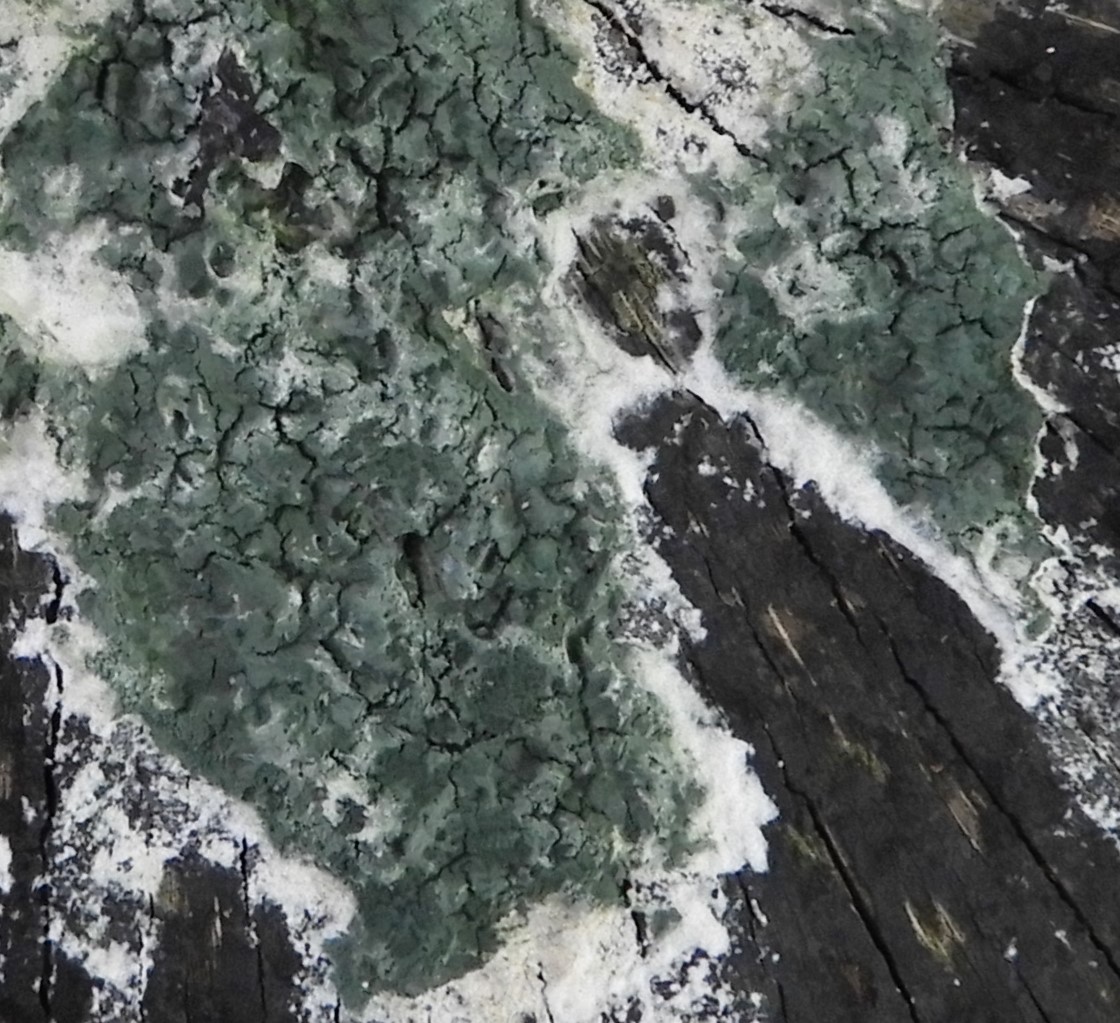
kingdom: Fungi
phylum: Ascomycota
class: Sordariomycetes
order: Hypocreales
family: Hypocreaceae
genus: Trichoderma
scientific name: Trichoderma
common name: kødkerne
